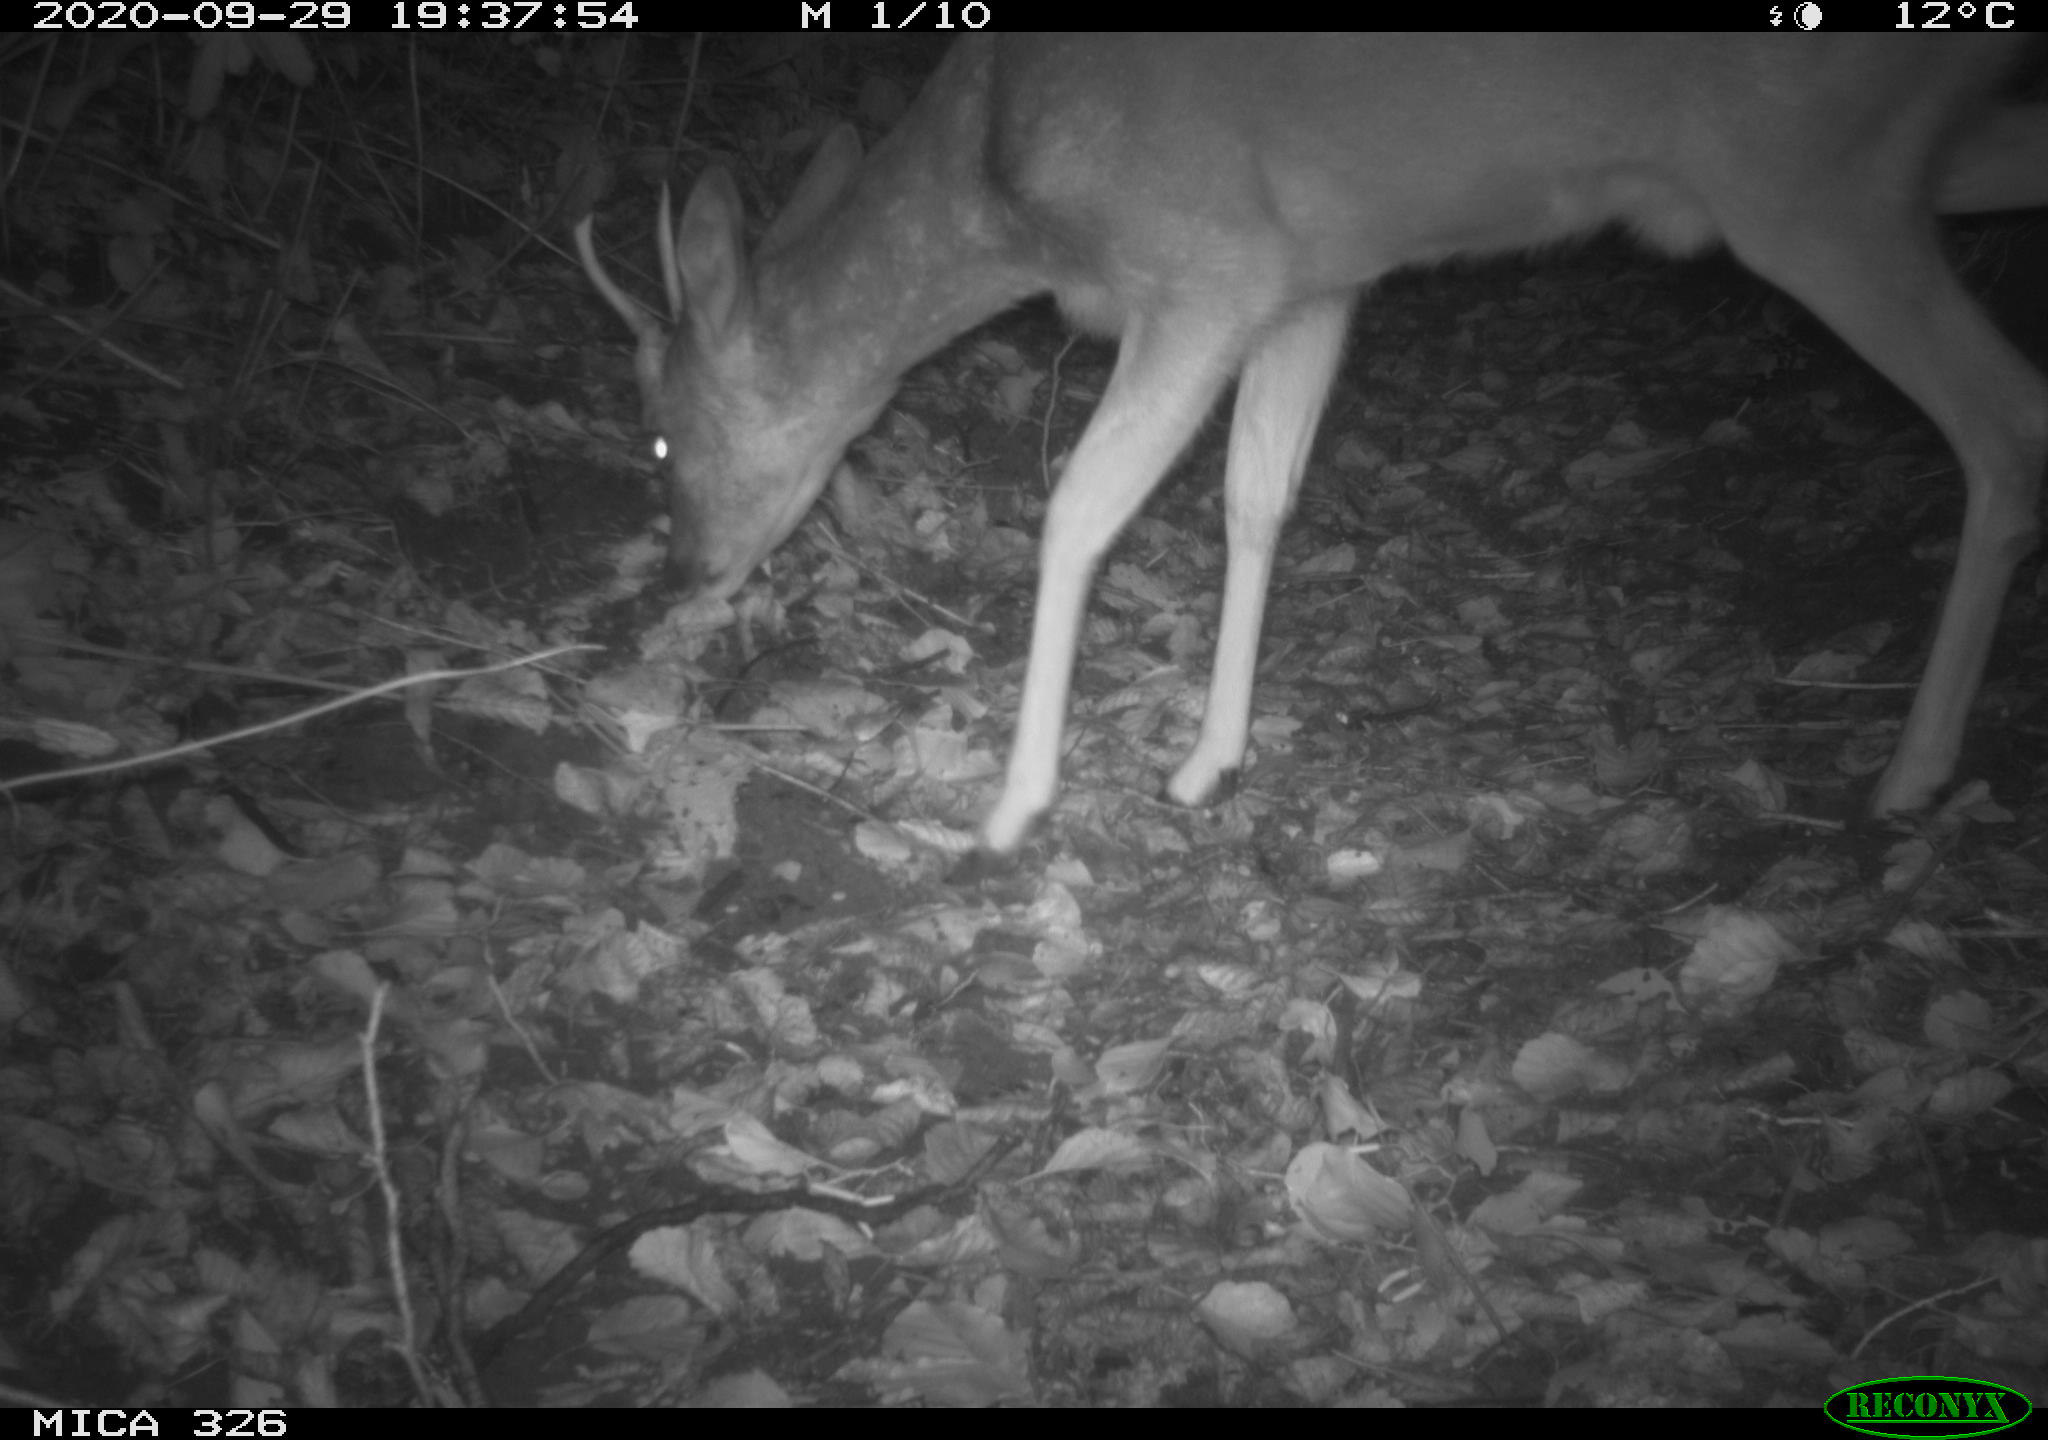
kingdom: Animalia
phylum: Chordata
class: Mammalia
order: Artiodactyla
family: Cervidae
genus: Capreolus
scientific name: Capreolus capreolus
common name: Western roe deer
